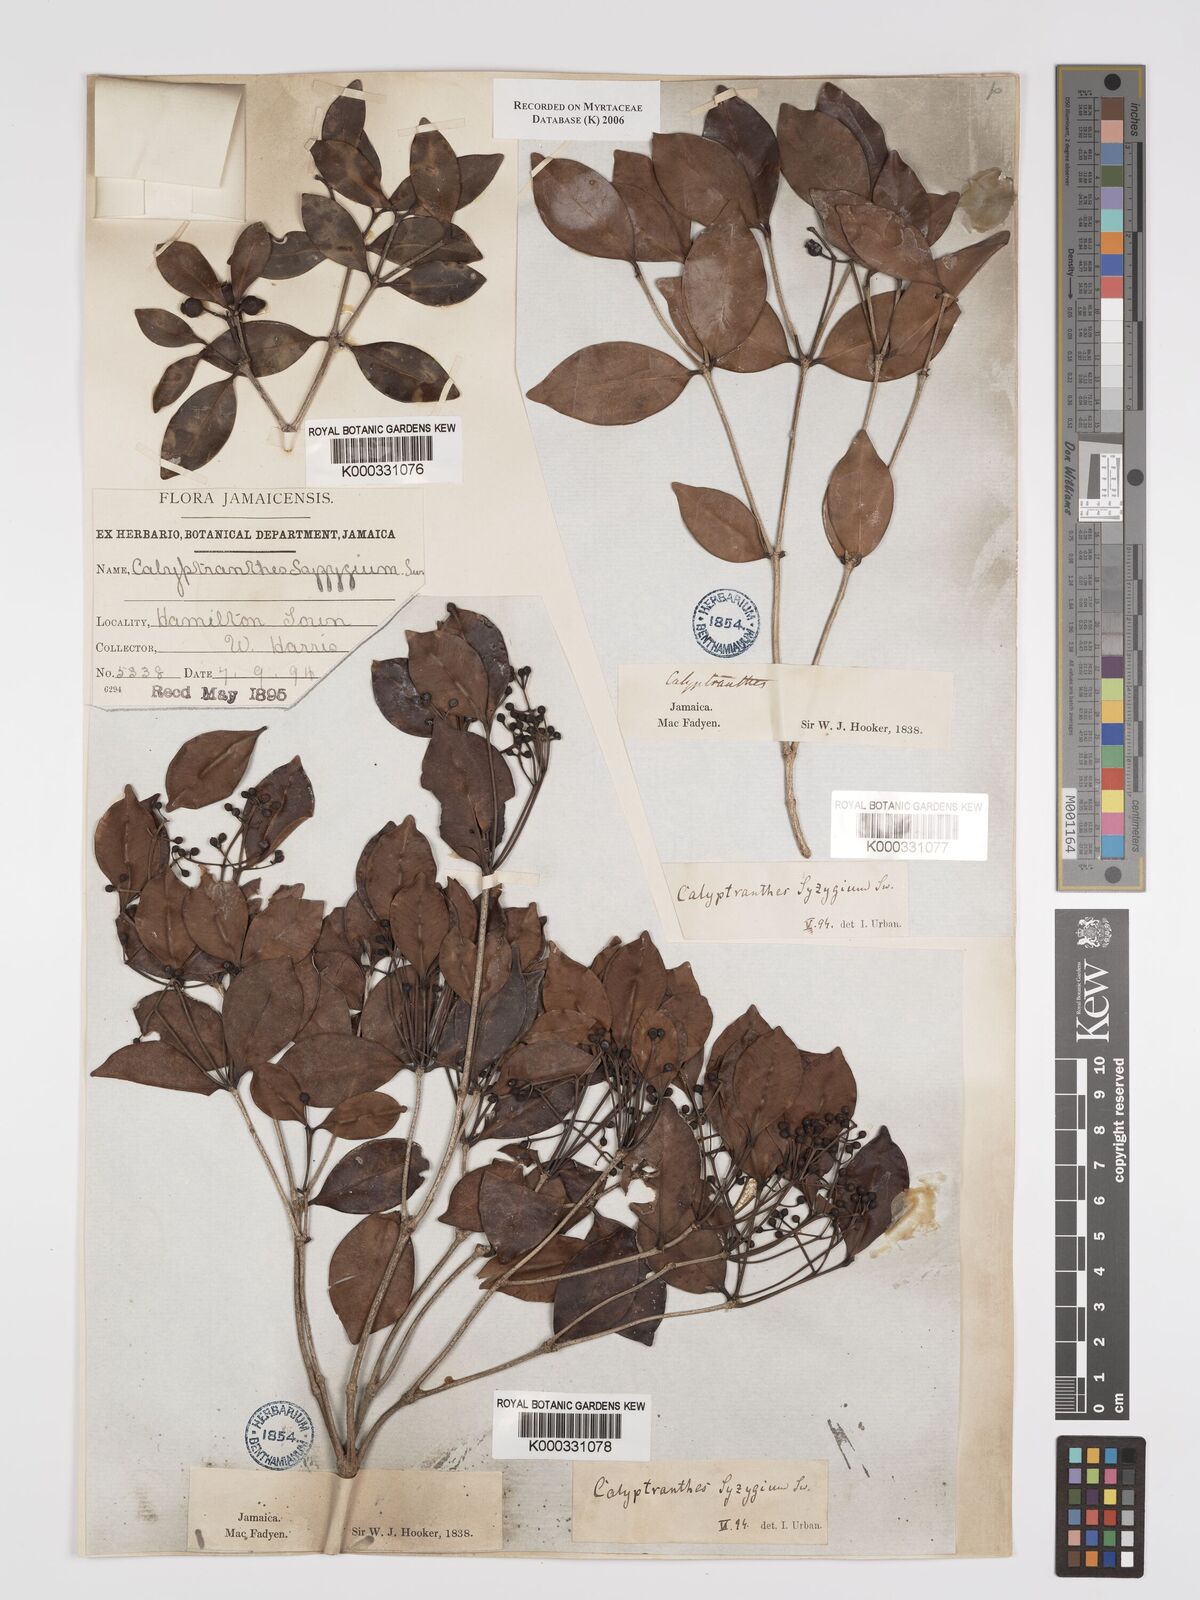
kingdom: Plantae
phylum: Tracheophyta
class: Magnoliopsida
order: Myrtales
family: Myrtaceae
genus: Myrcia
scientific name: Myrcia chytraculia
